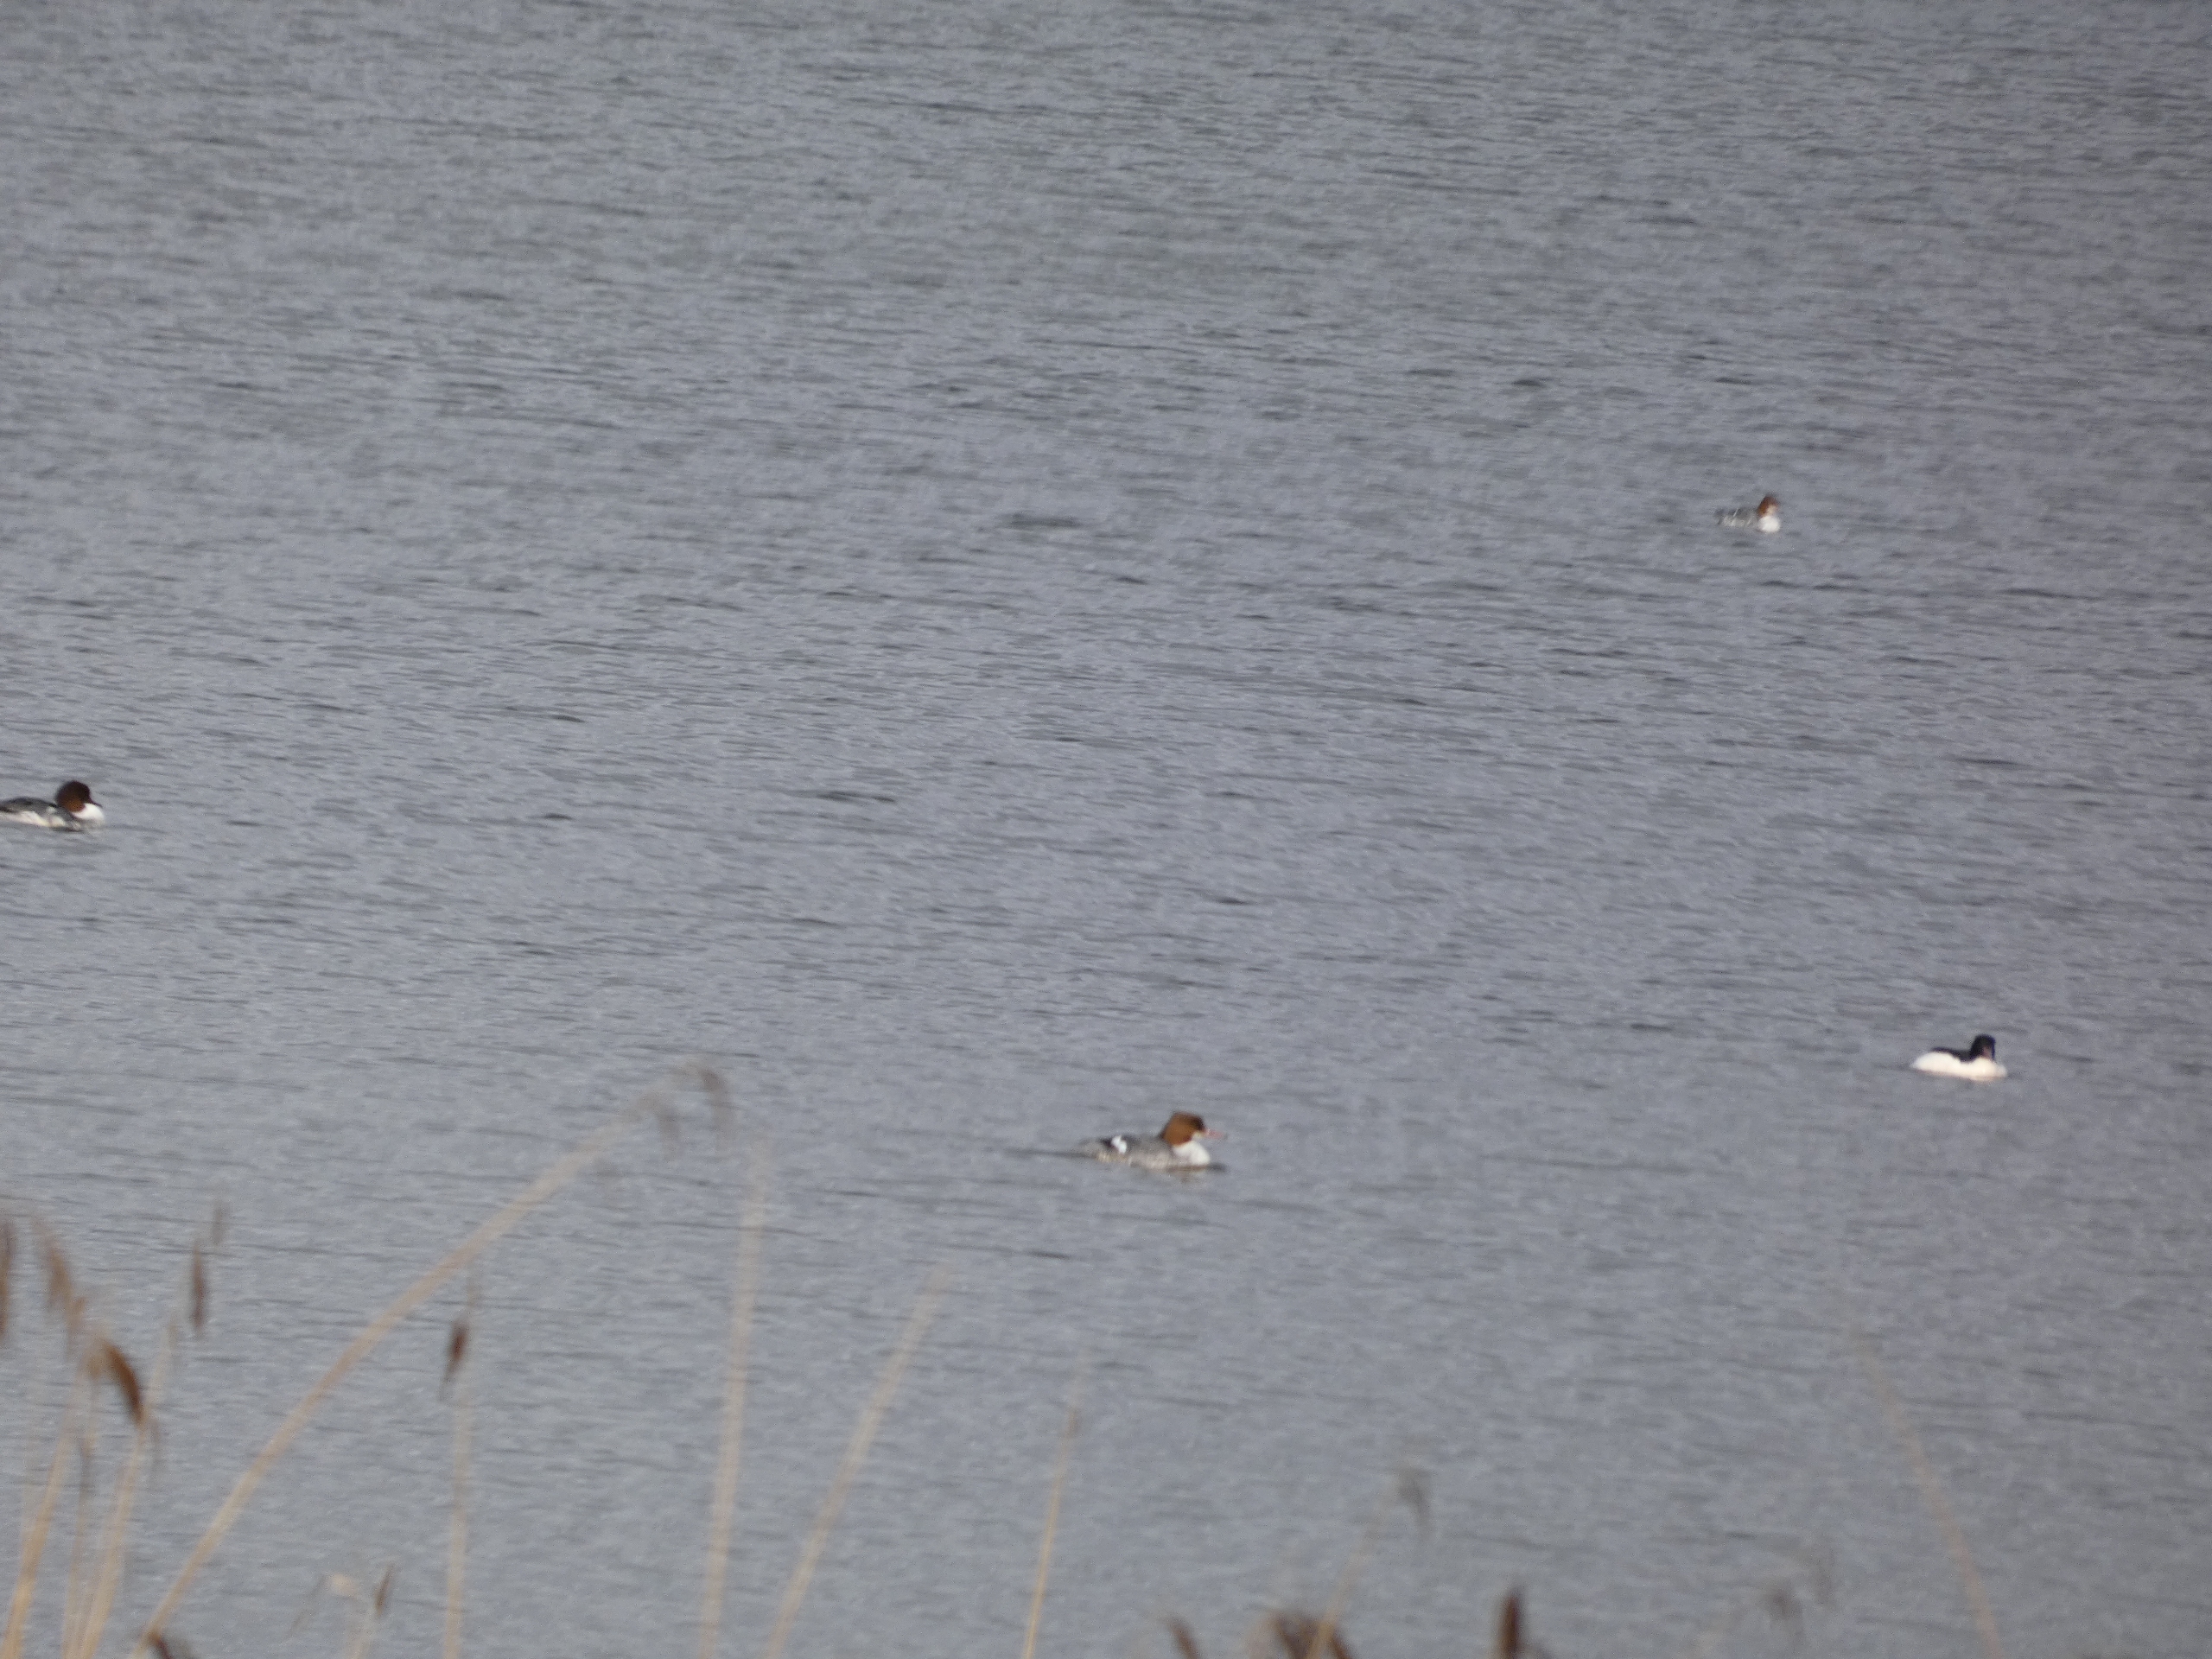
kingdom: Animalia
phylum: Chordata
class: Aves
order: Anseriformes
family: Anatidae
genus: Mergus
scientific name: Mergus merganser
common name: Stor skallesluger
